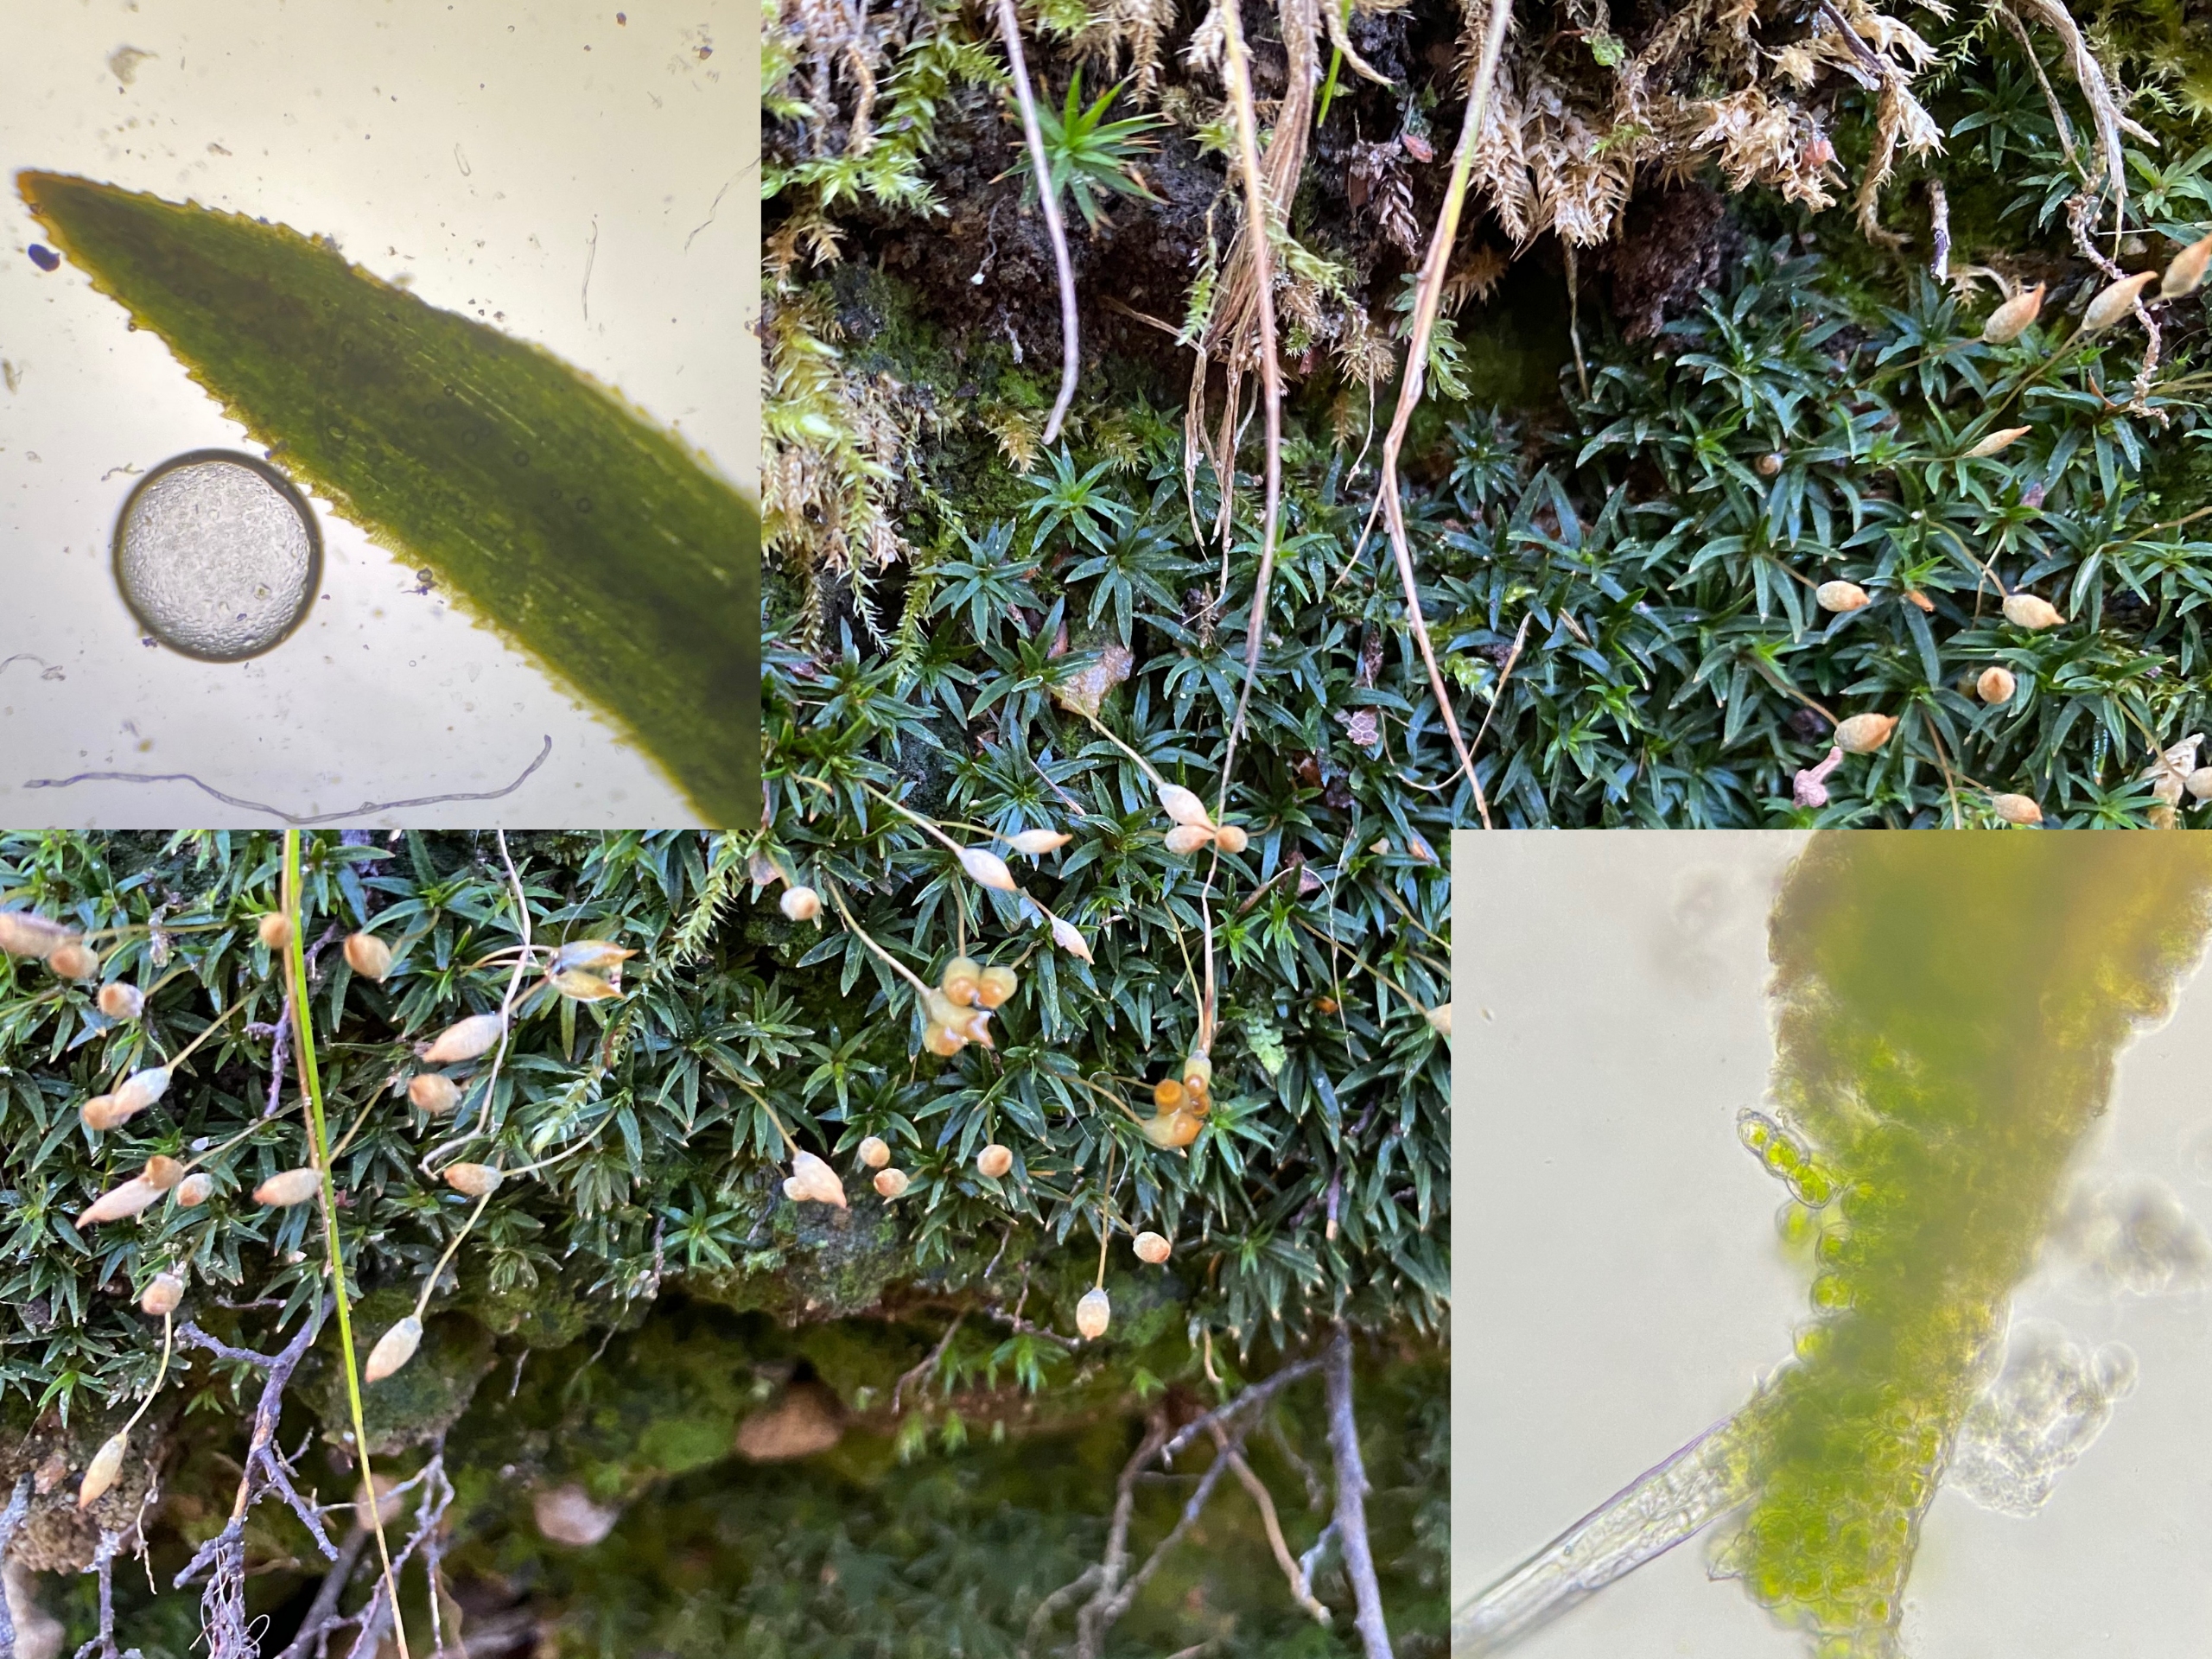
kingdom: Plantae
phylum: Bryophyta
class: Polytrichopsida
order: Polytrichales
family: Polytrichaceae
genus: Pogonatum
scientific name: Pogonatum aloides
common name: Smal urnekapsel
